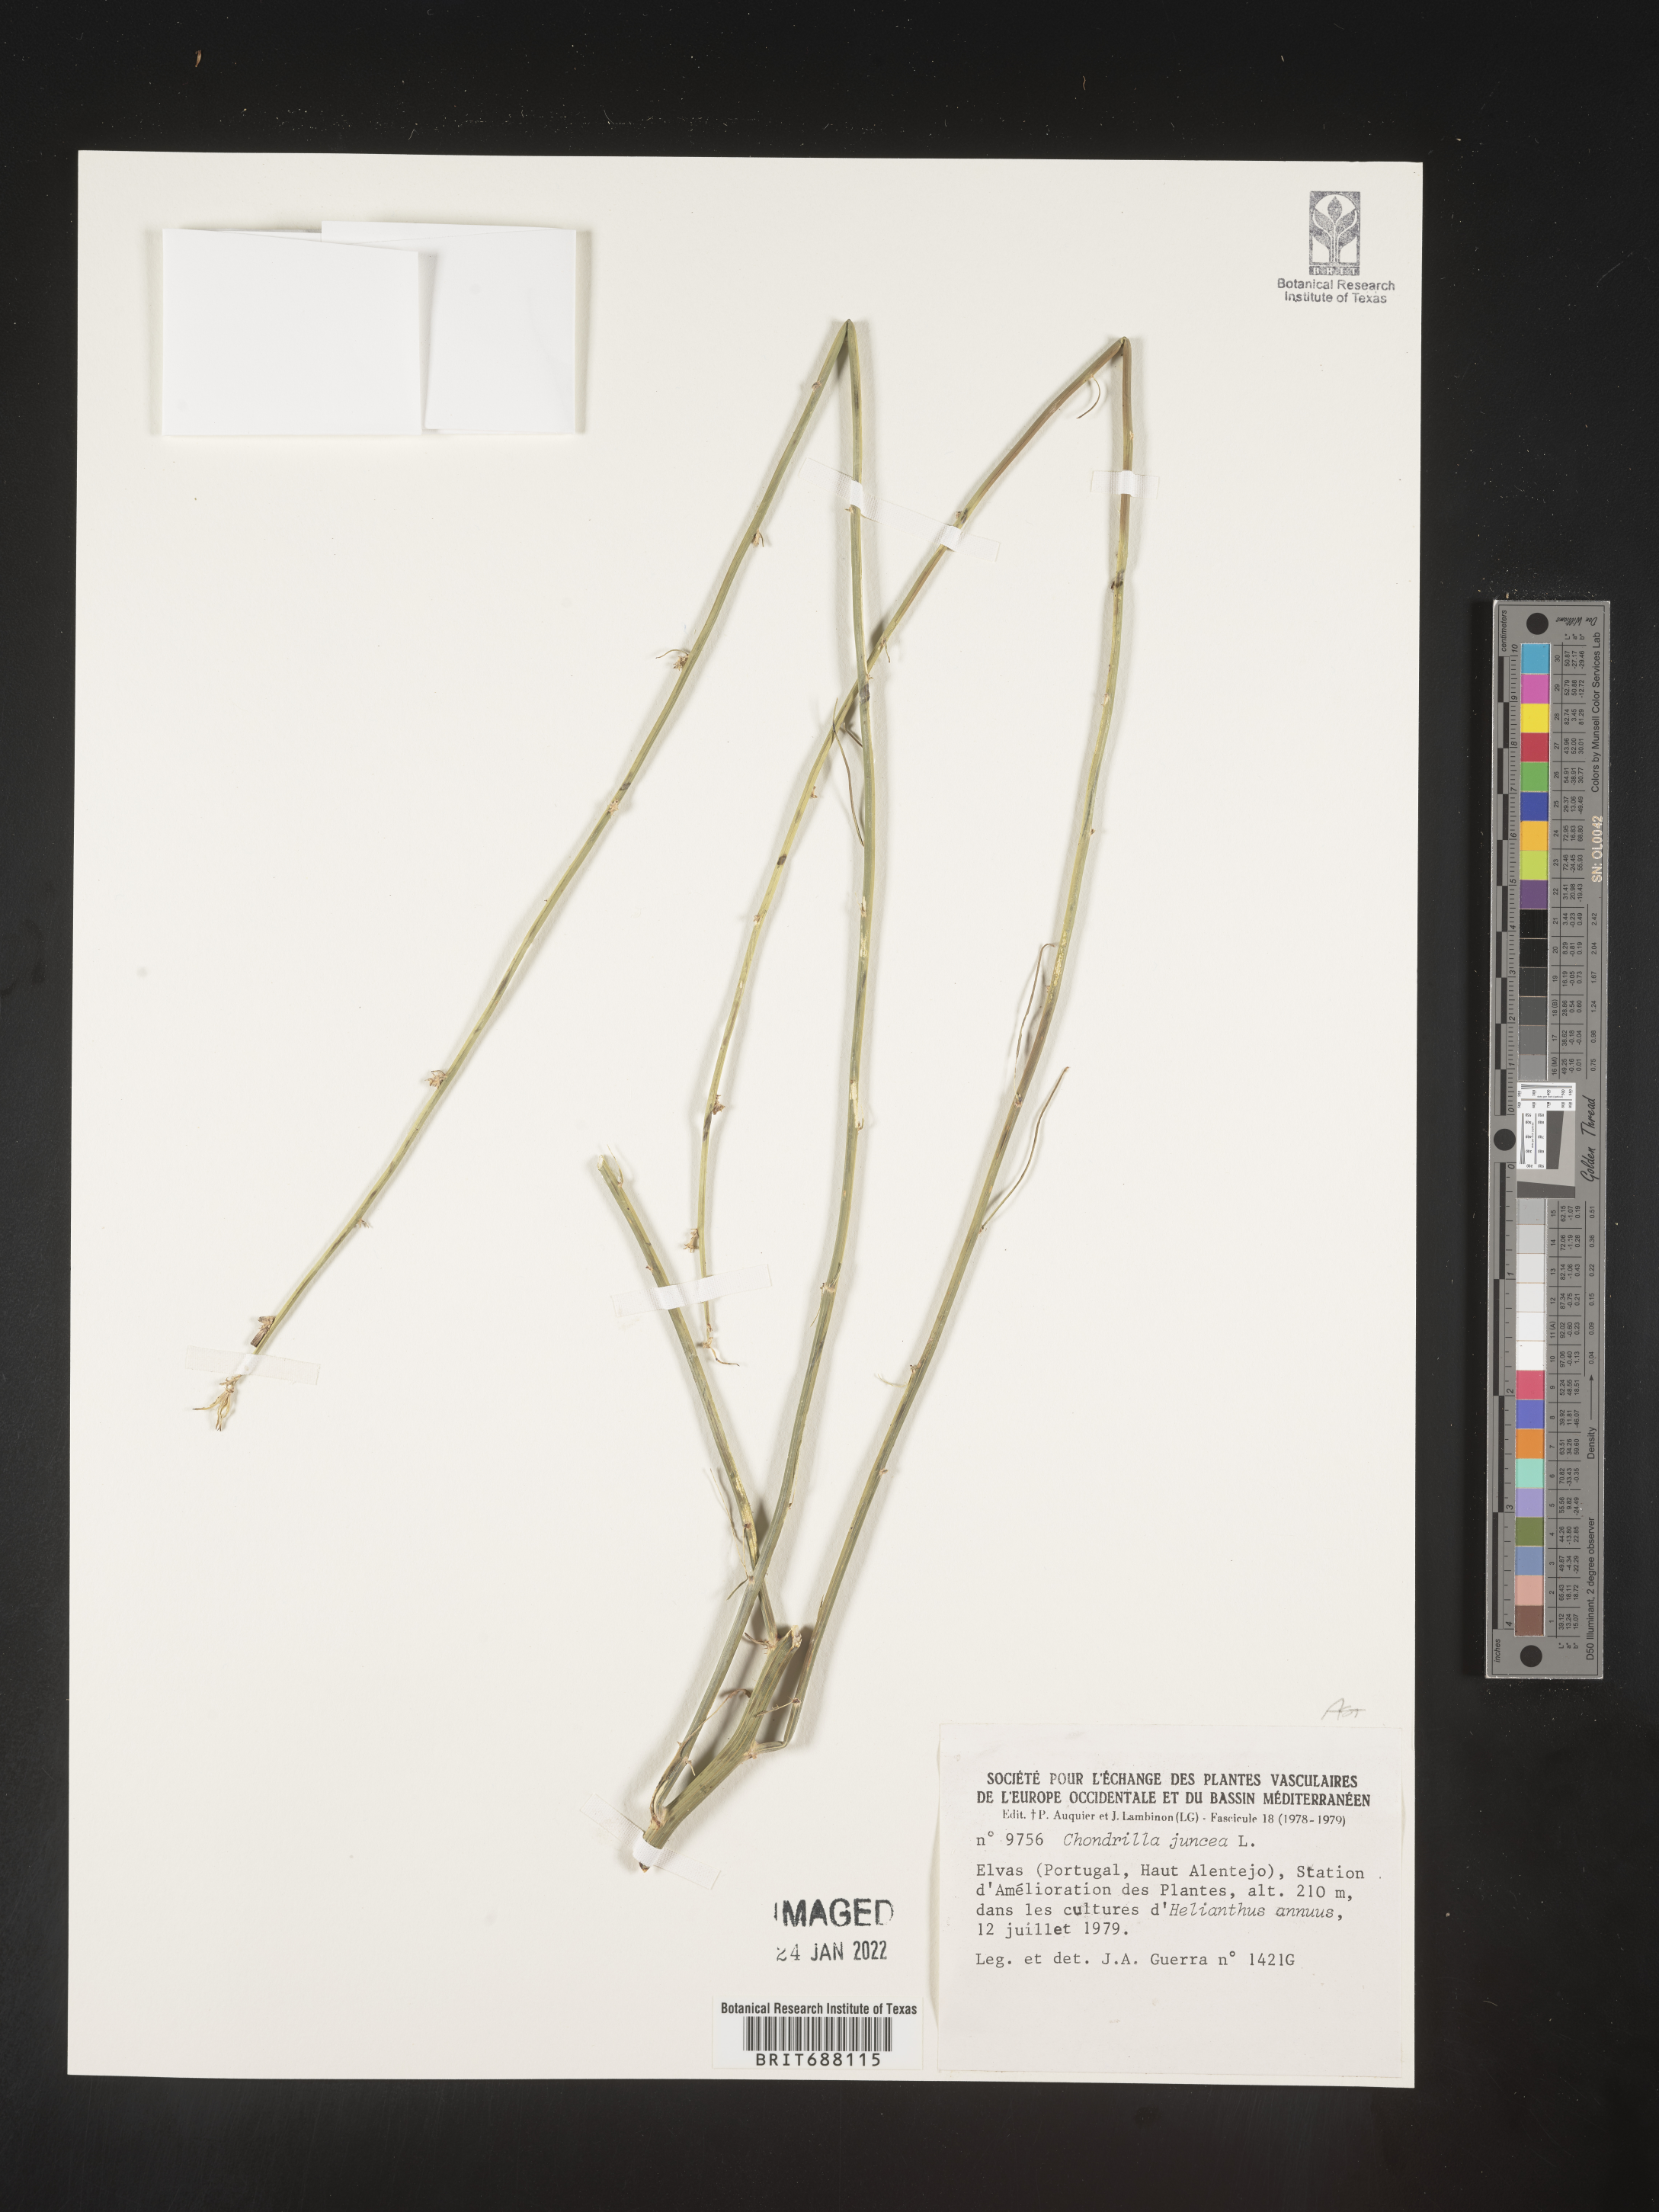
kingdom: Plantae
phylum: Tracheophyta
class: Magnoliopsida
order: Asterales
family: Asteraceae
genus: Chondrilla
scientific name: Chondrilla
